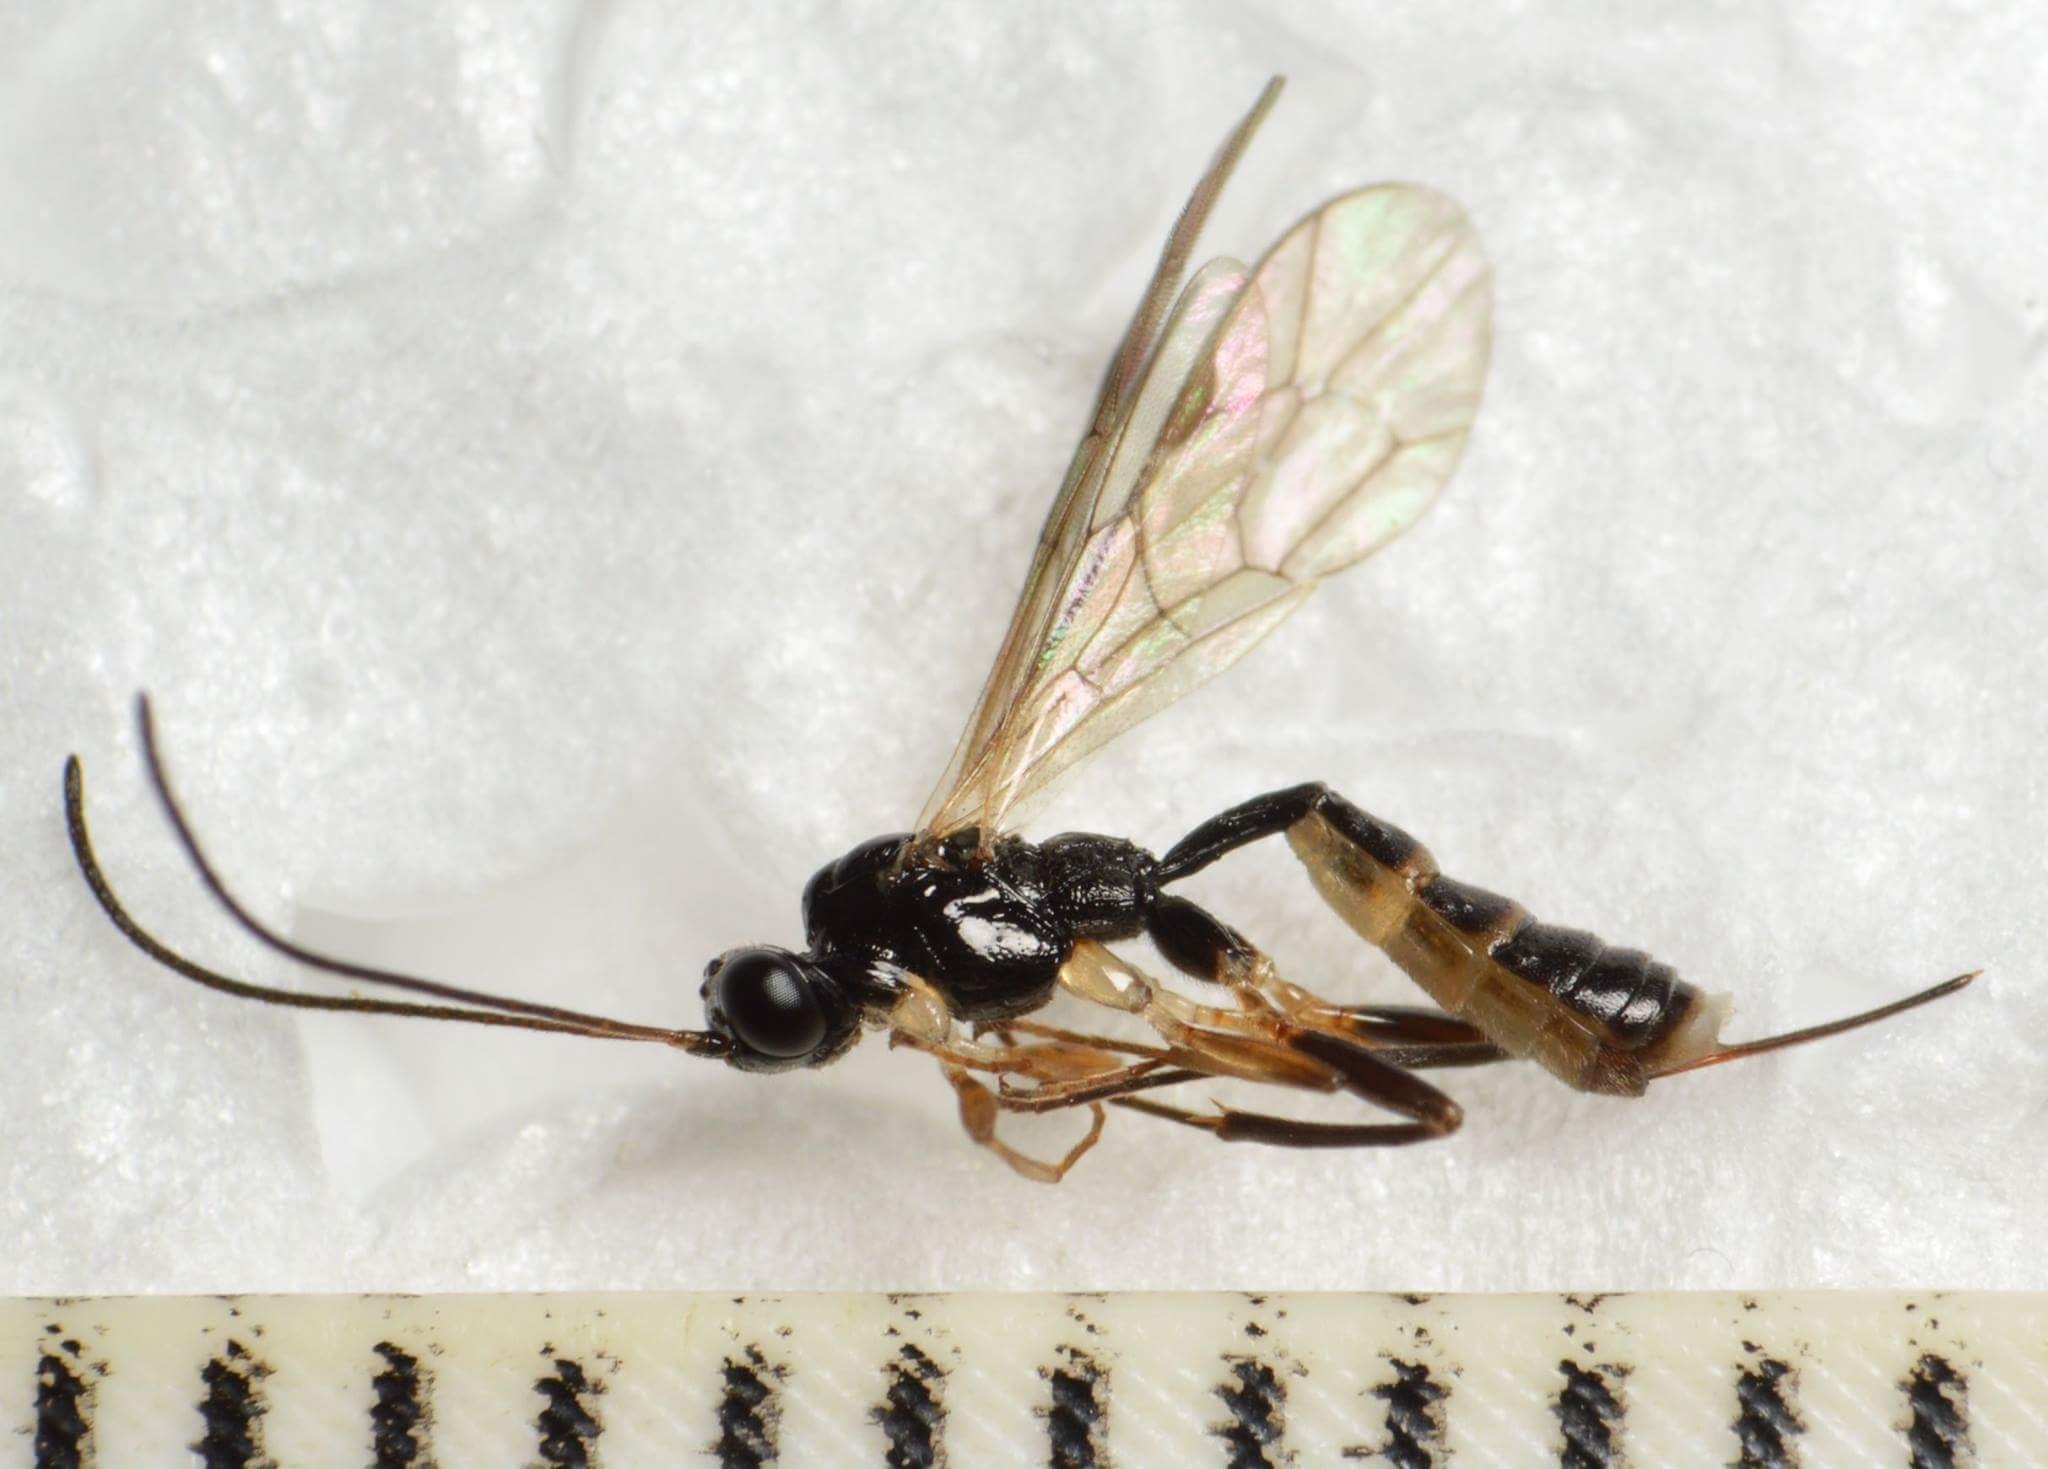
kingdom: Animalia
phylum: Arthropoda
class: Insecta
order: Hymenoptera
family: Ichneumonidae
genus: Diacritus
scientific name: Diacritus aciculatus
